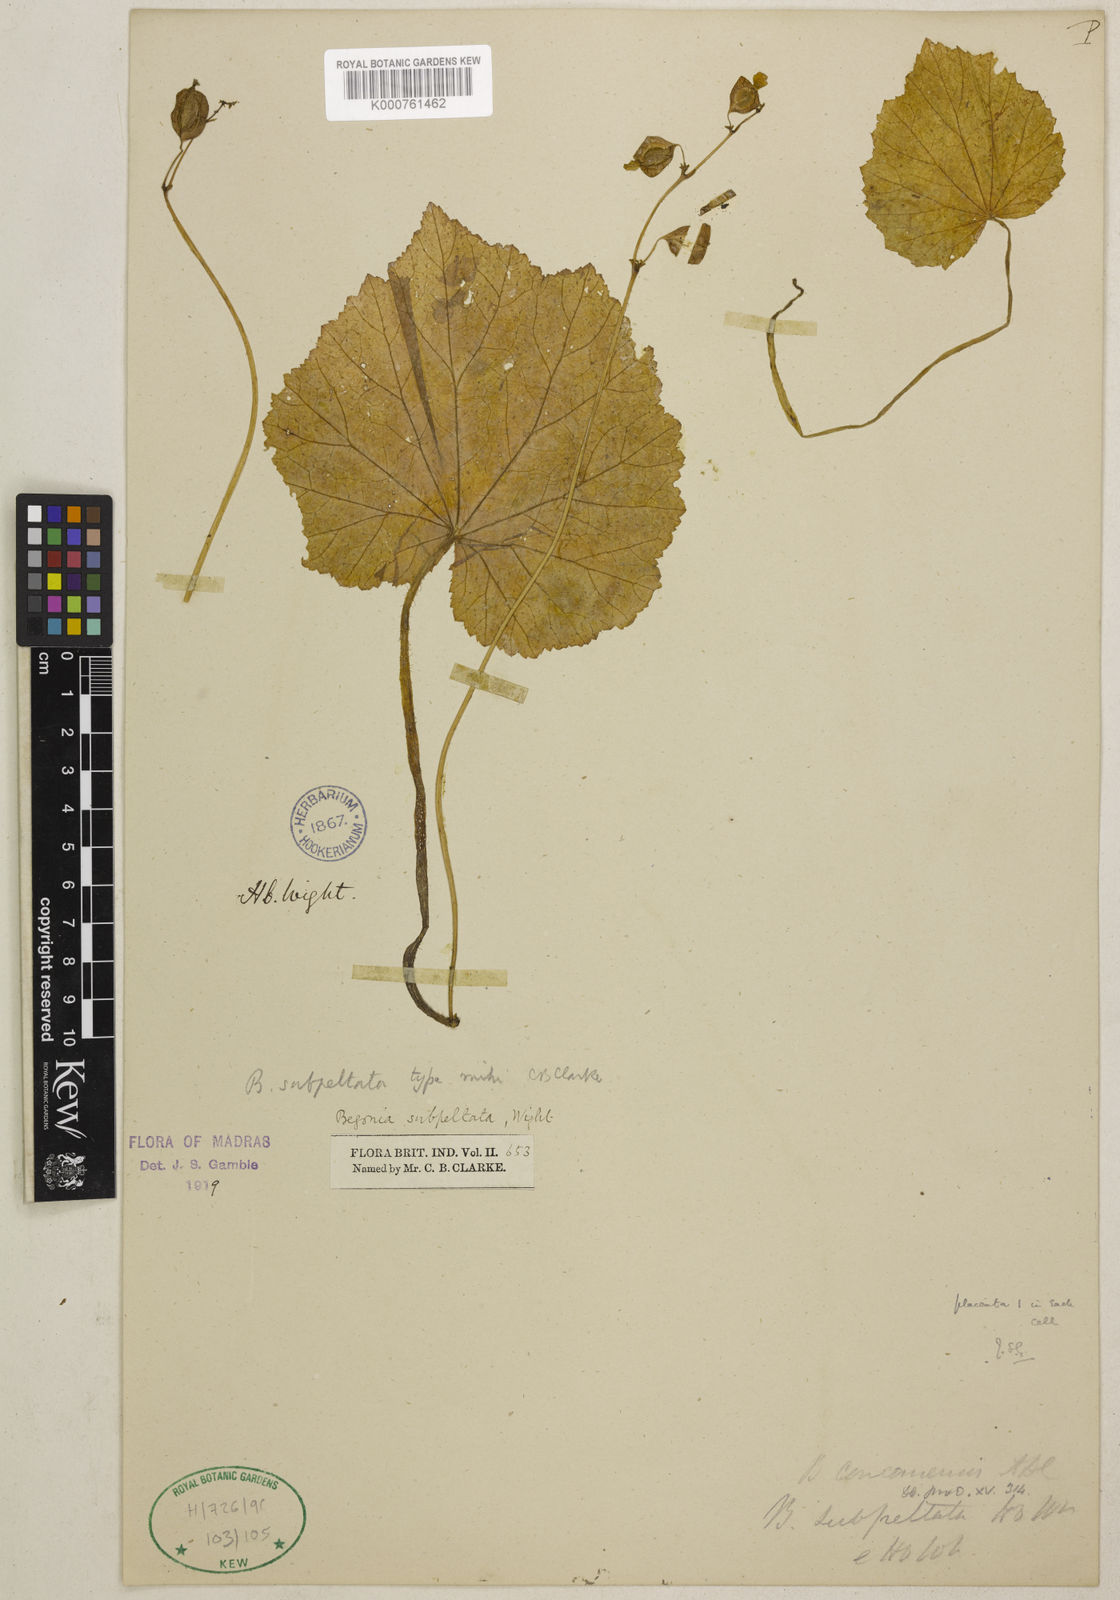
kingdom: Plantae
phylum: Tracheophyta
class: Magnoliopsida
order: Cucurbitales
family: Begoniaceae
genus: Begonia
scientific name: Begonia subpeltata
